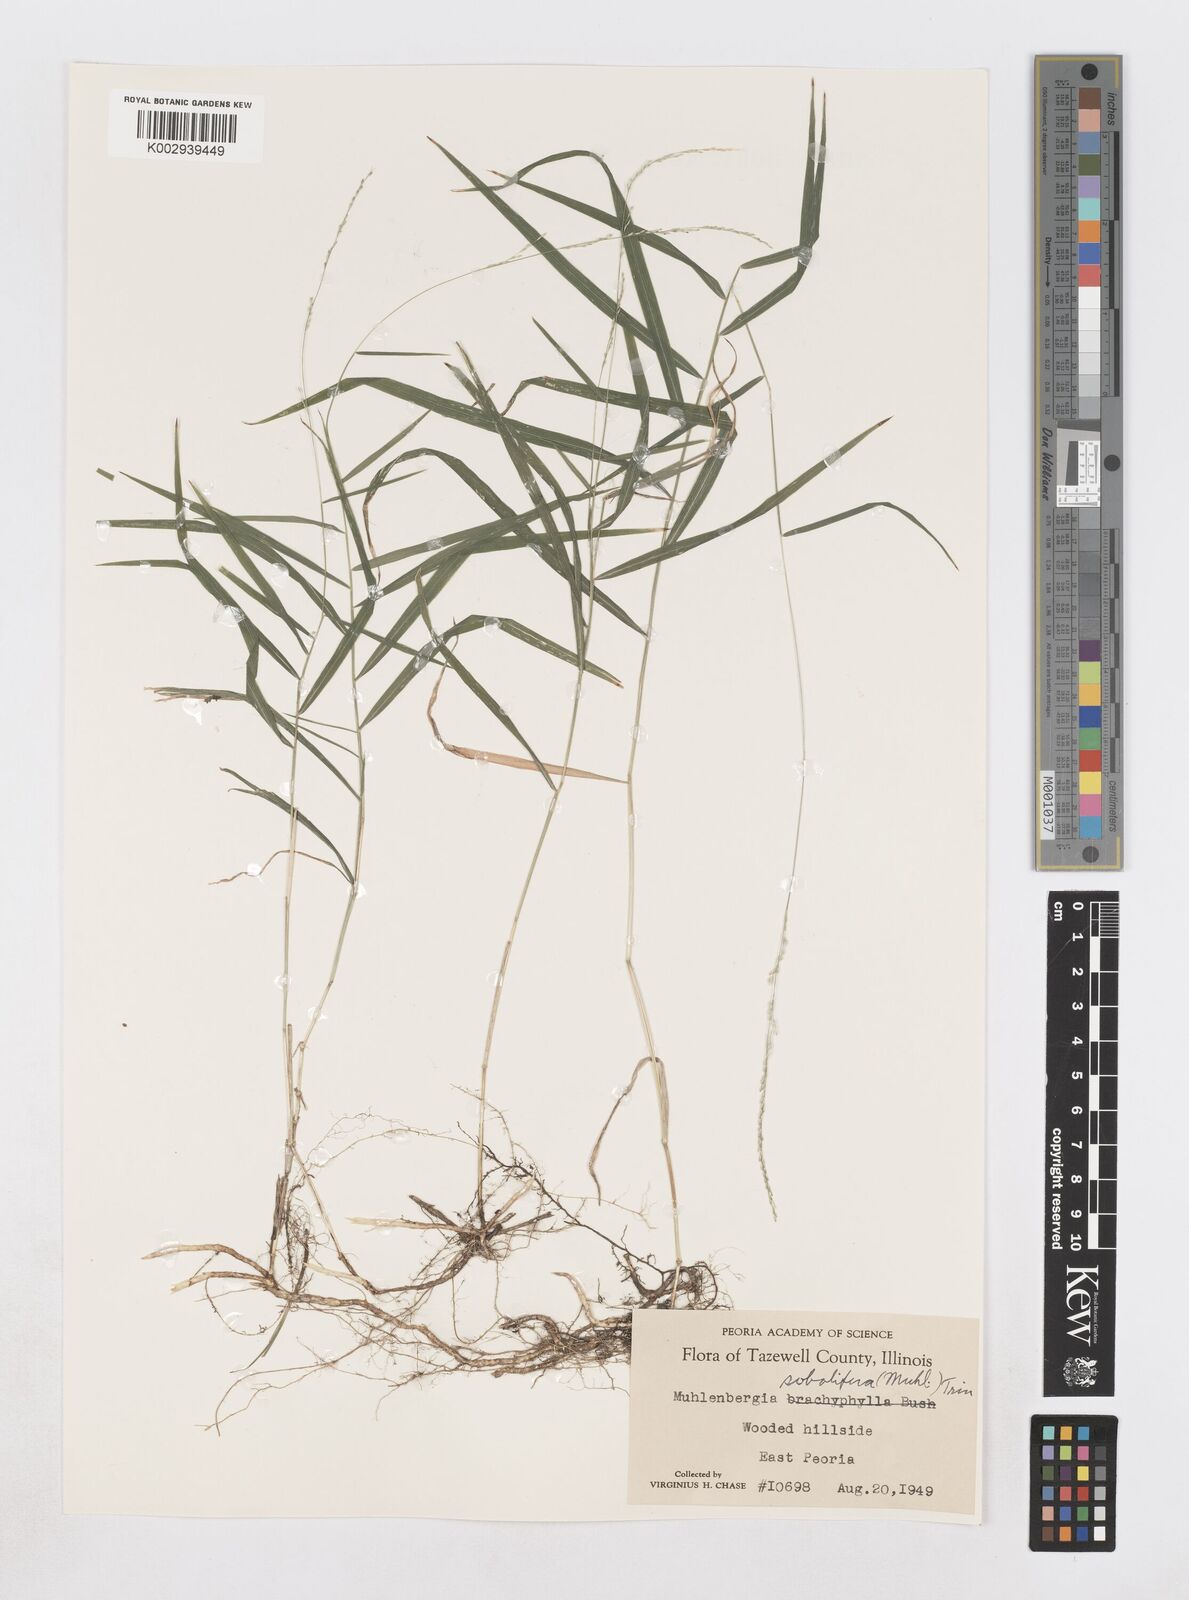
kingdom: Plantae
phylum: Tracheophyta
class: Liliopsida
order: Poales
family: Poaceae
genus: Muhlenbergia
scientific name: Muhlenbergia sobolifera
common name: Creeping muhly
